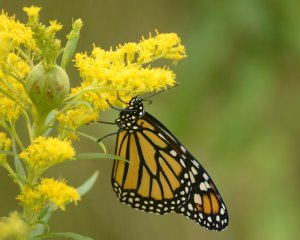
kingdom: Animalia
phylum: Arthropoda
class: Insecta
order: Lepidoptera
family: Nymphalidae
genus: Danaus
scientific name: Danaus plexippus
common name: Monarch
